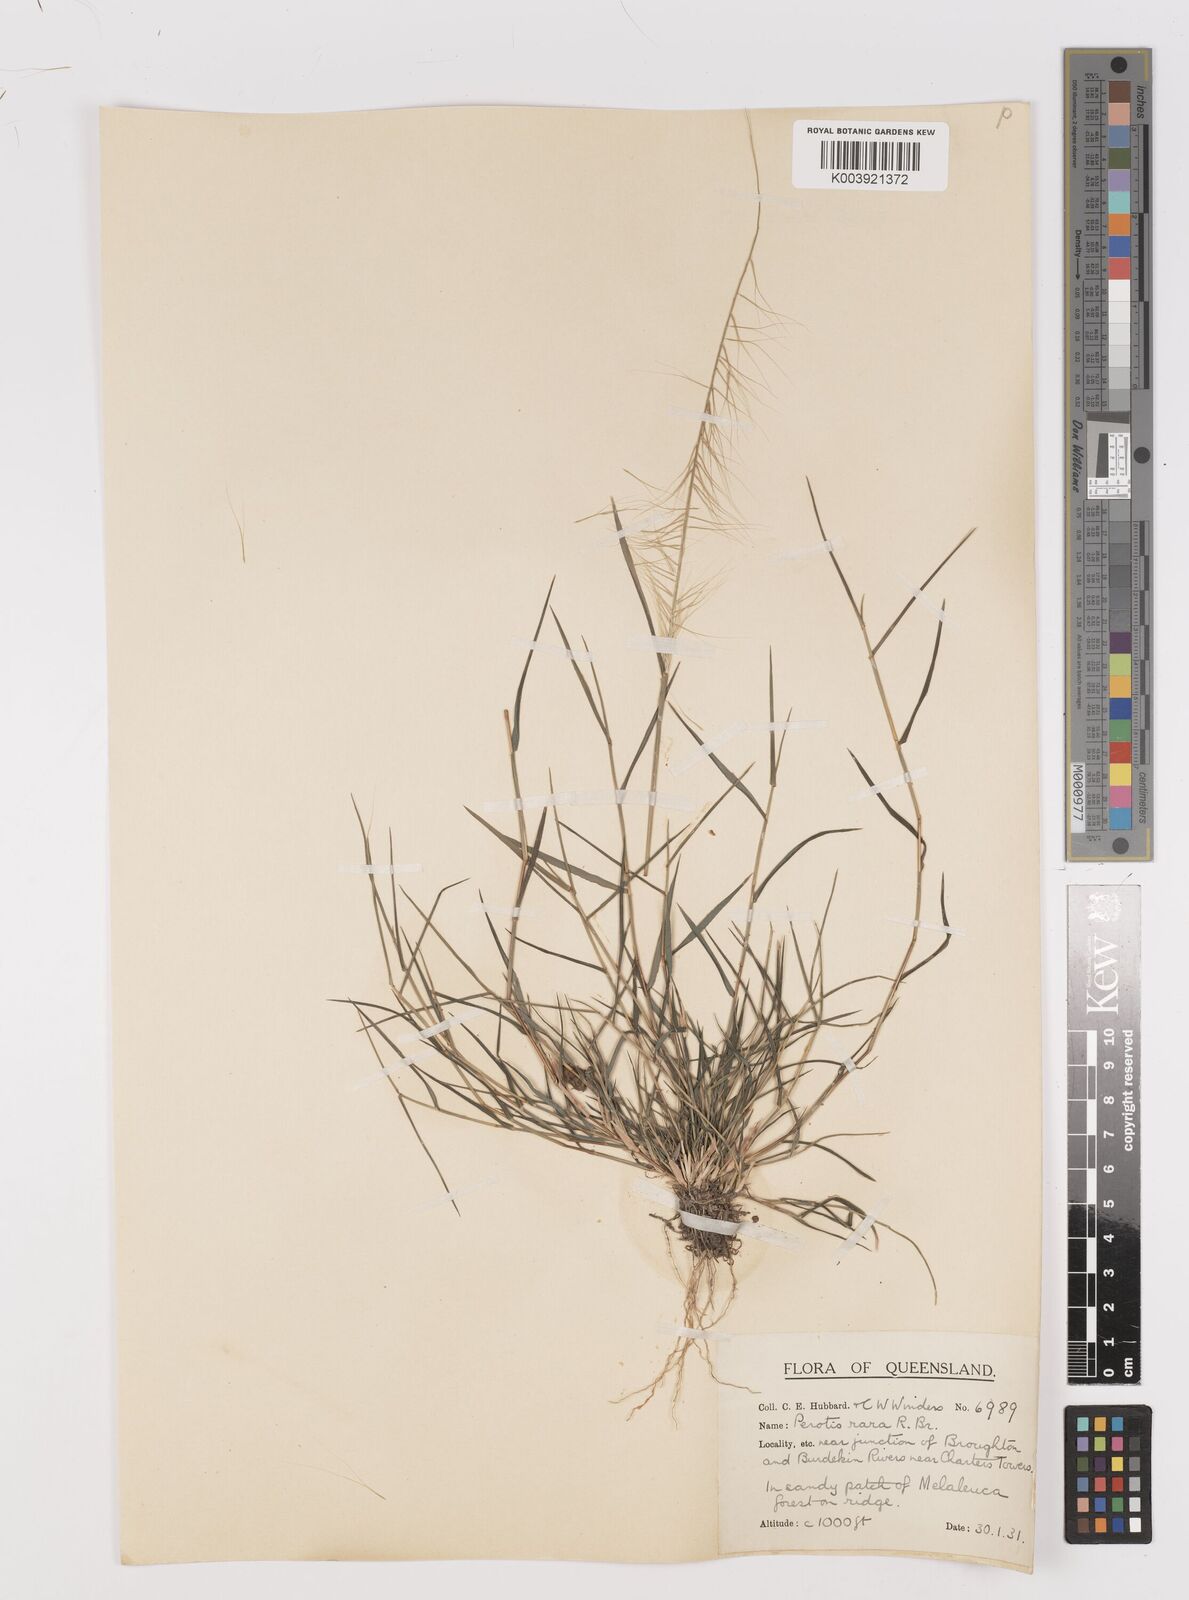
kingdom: Plantae
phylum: Tracheophyta
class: Liliopsida
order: Poales
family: Poaceae
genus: Perotis
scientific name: Perotis rara
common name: Comet grass
